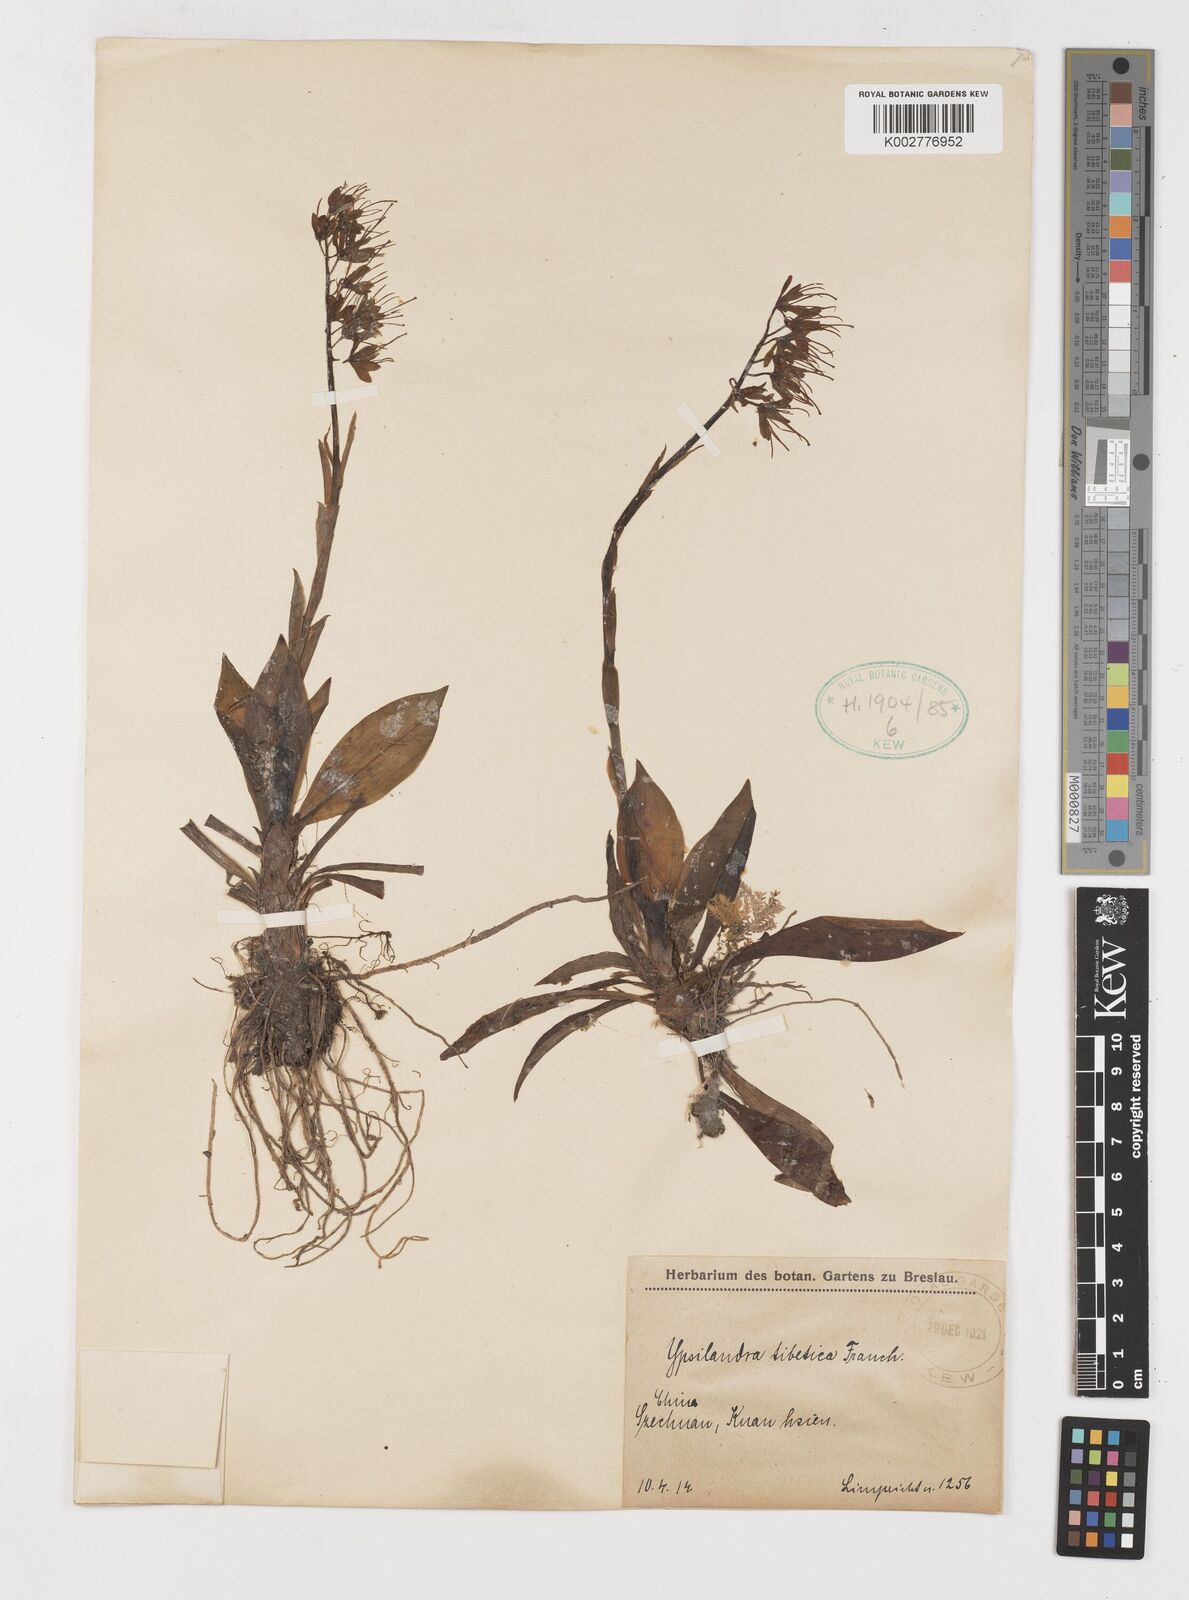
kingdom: Plantae
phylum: Tracheophyta
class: Liliopsida
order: Liliales
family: Melanthiaceae
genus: Helonias
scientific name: Helonias thibetica
